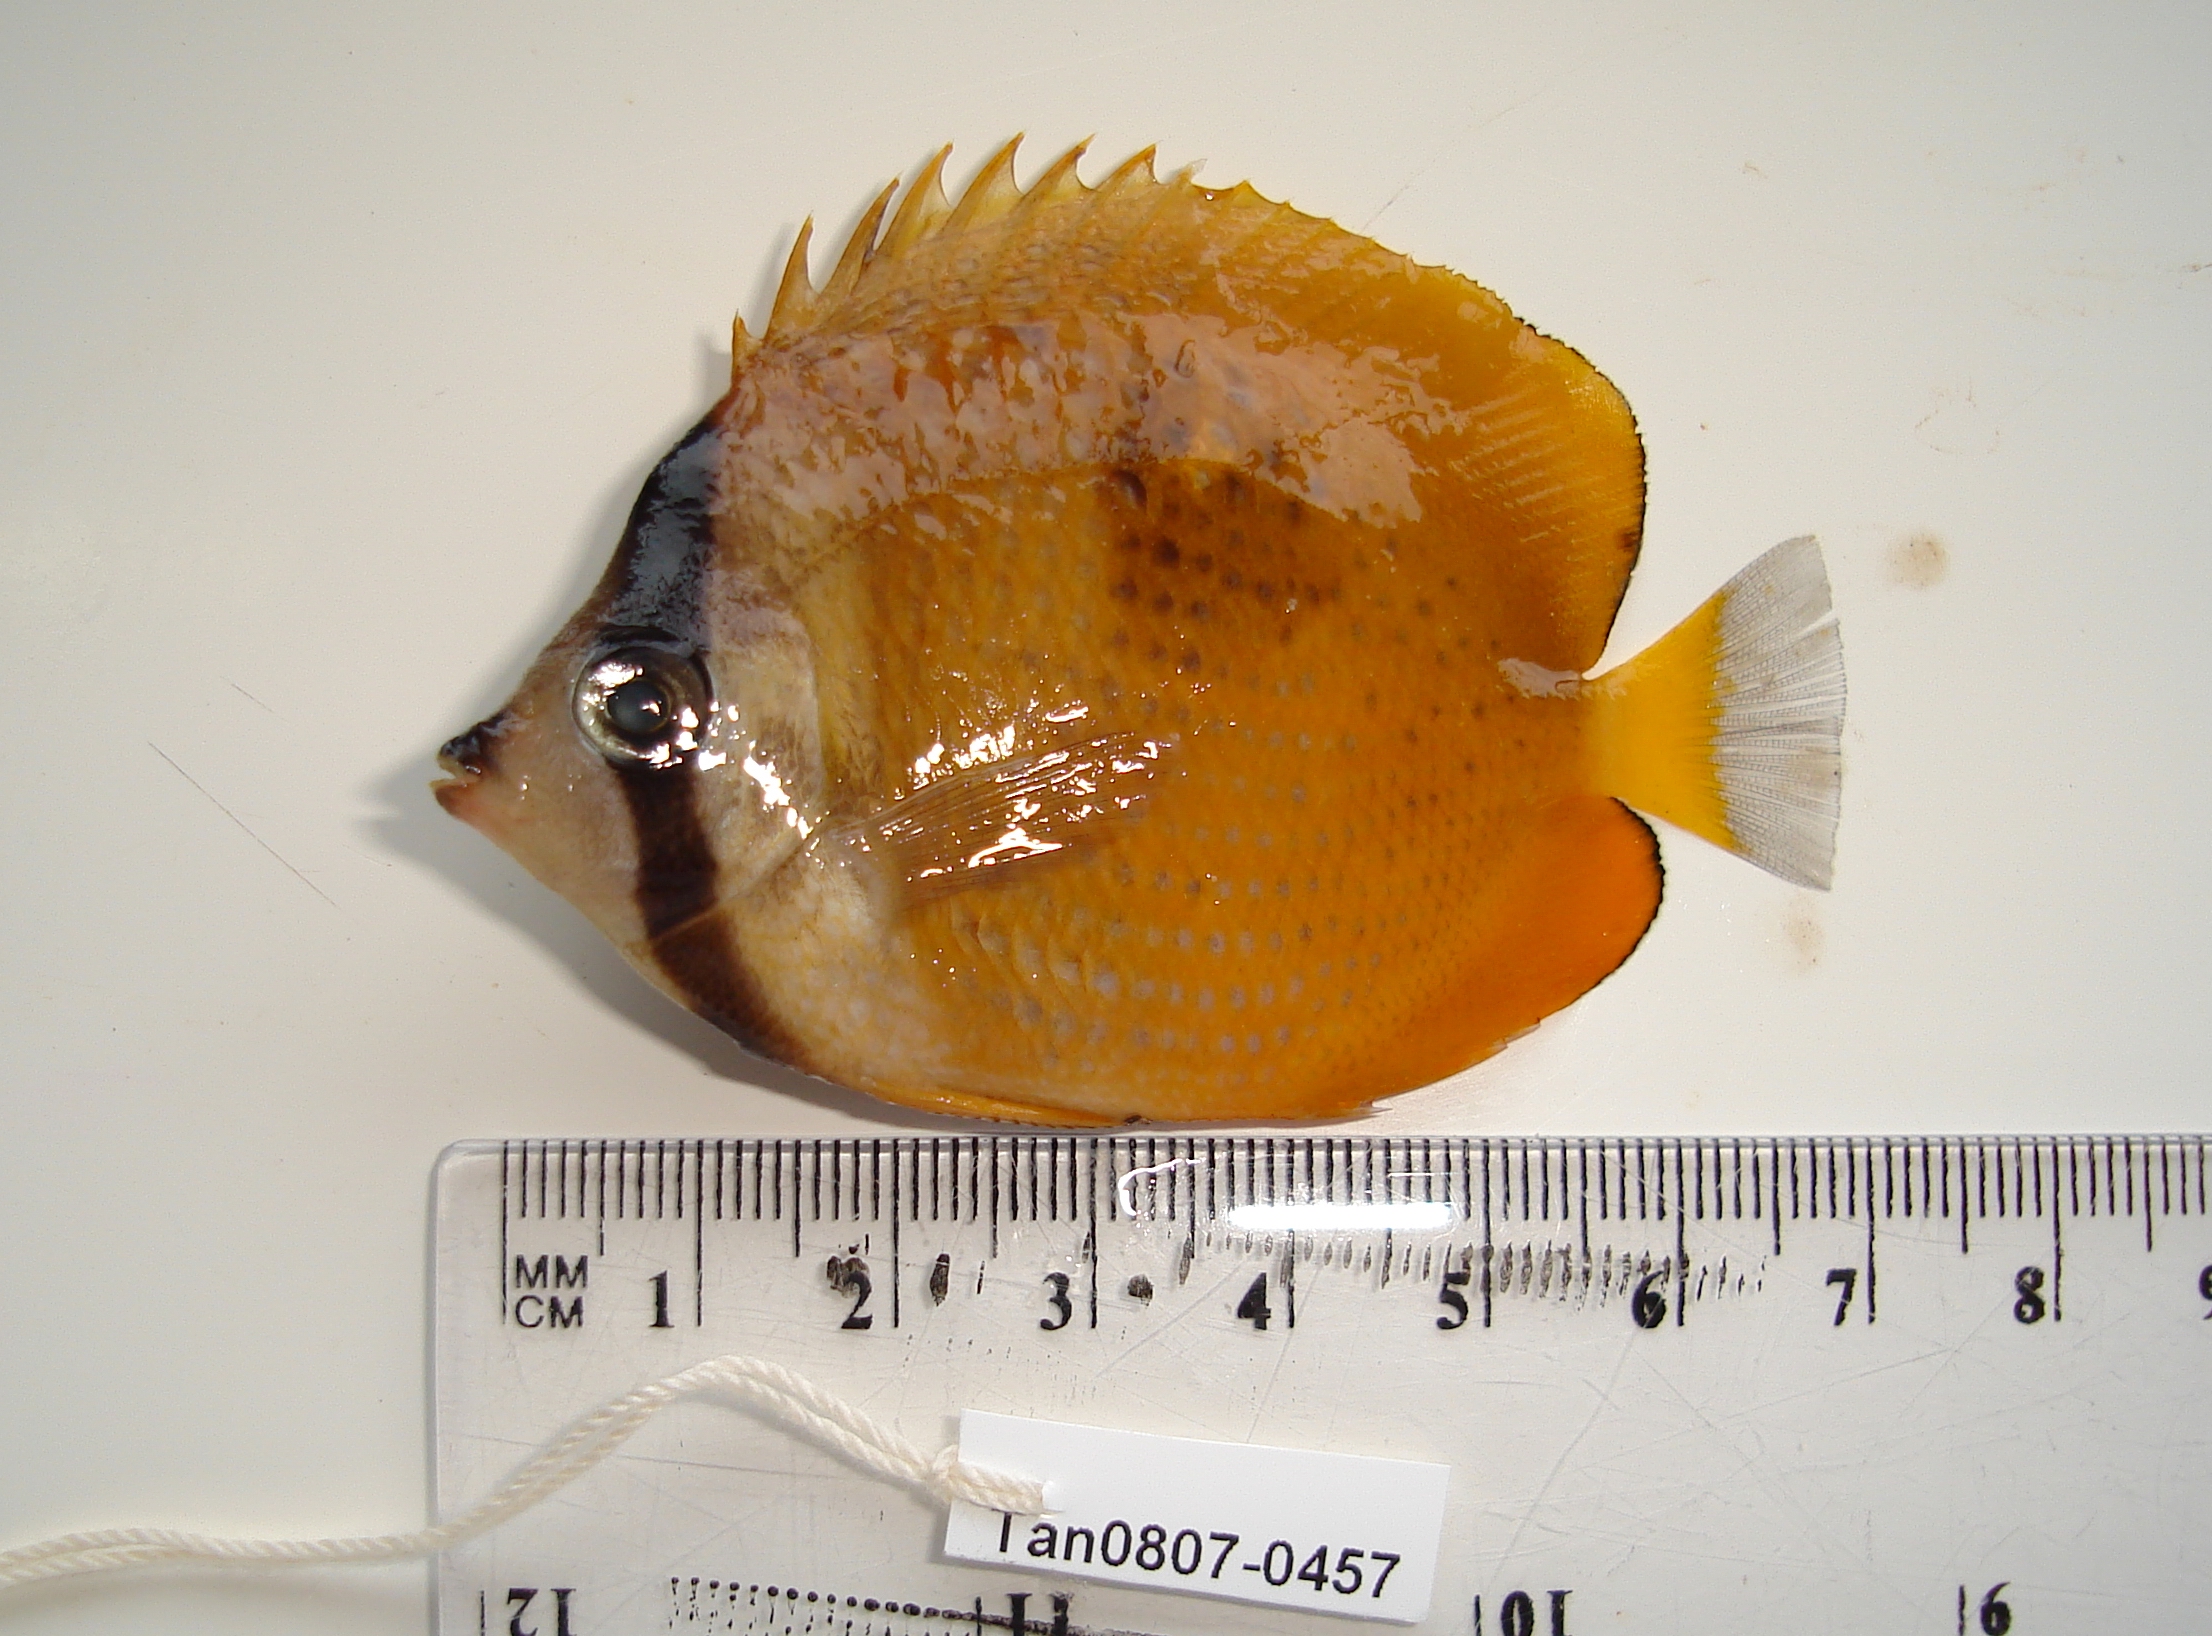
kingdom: Animalia
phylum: Chordata
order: Perciformes
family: Chaetodontidae
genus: Chaetodon
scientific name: Chaetodon kleinii
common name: Klein's butterflyfish
